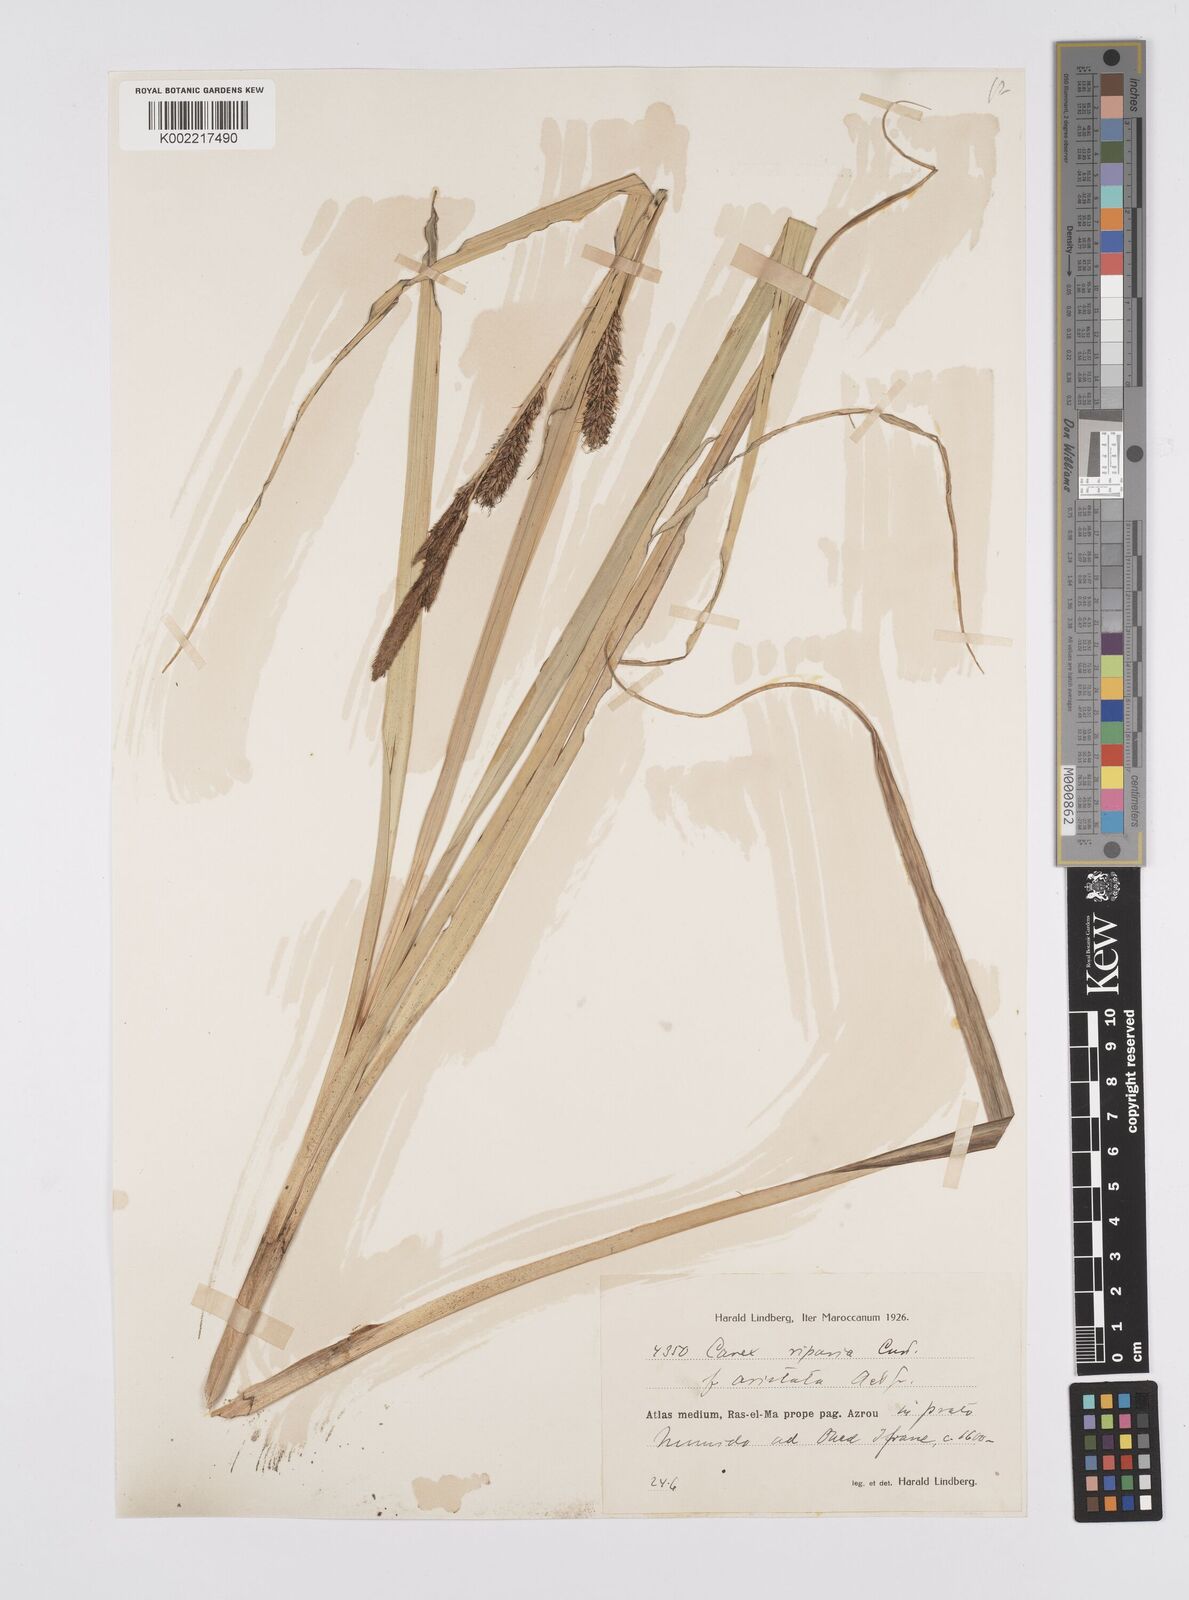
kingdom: Plantae
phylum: Tracheophyta
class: Liliopsida
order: Poales
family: Cyperaceae
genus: Carex
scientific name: Carex riparia
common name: Greater pond-sedge
